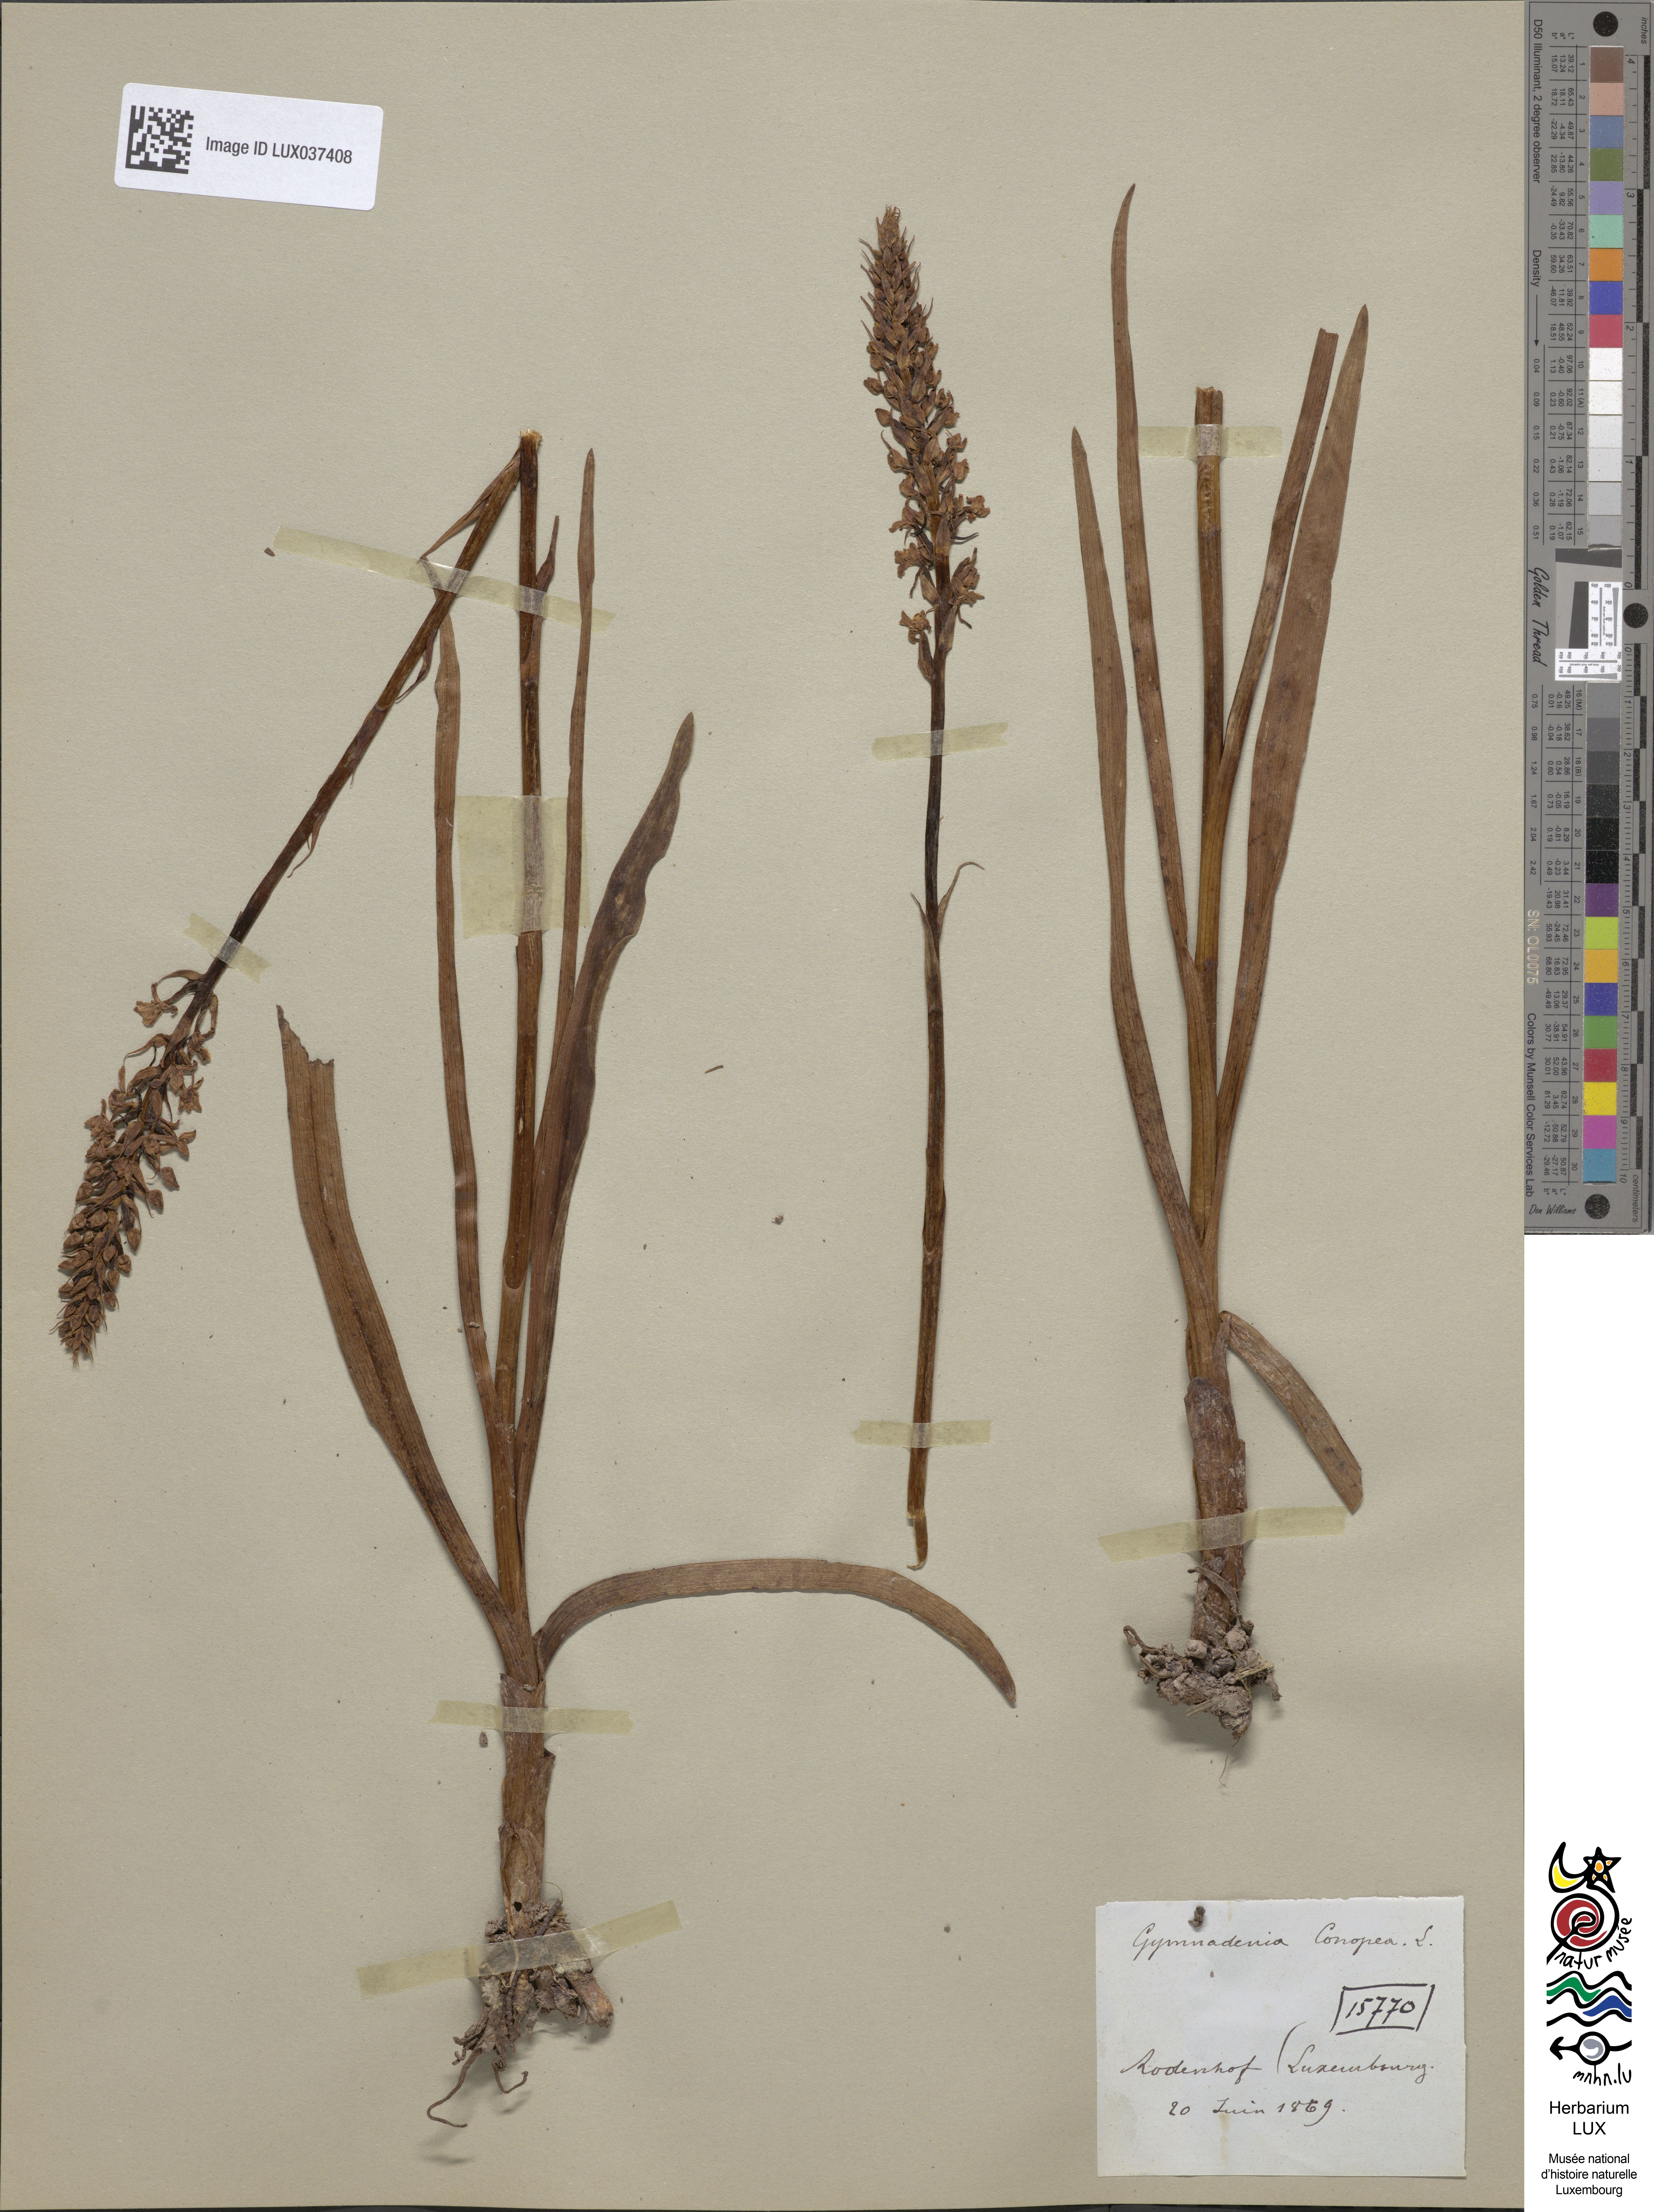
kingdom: Plantae
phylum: Tracheophyta
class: Liliopsida
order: Asparagales
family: Orchidaceae
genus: Gymnadenia
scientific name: Gymnadenia conopsea
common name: Fragrant orchid
